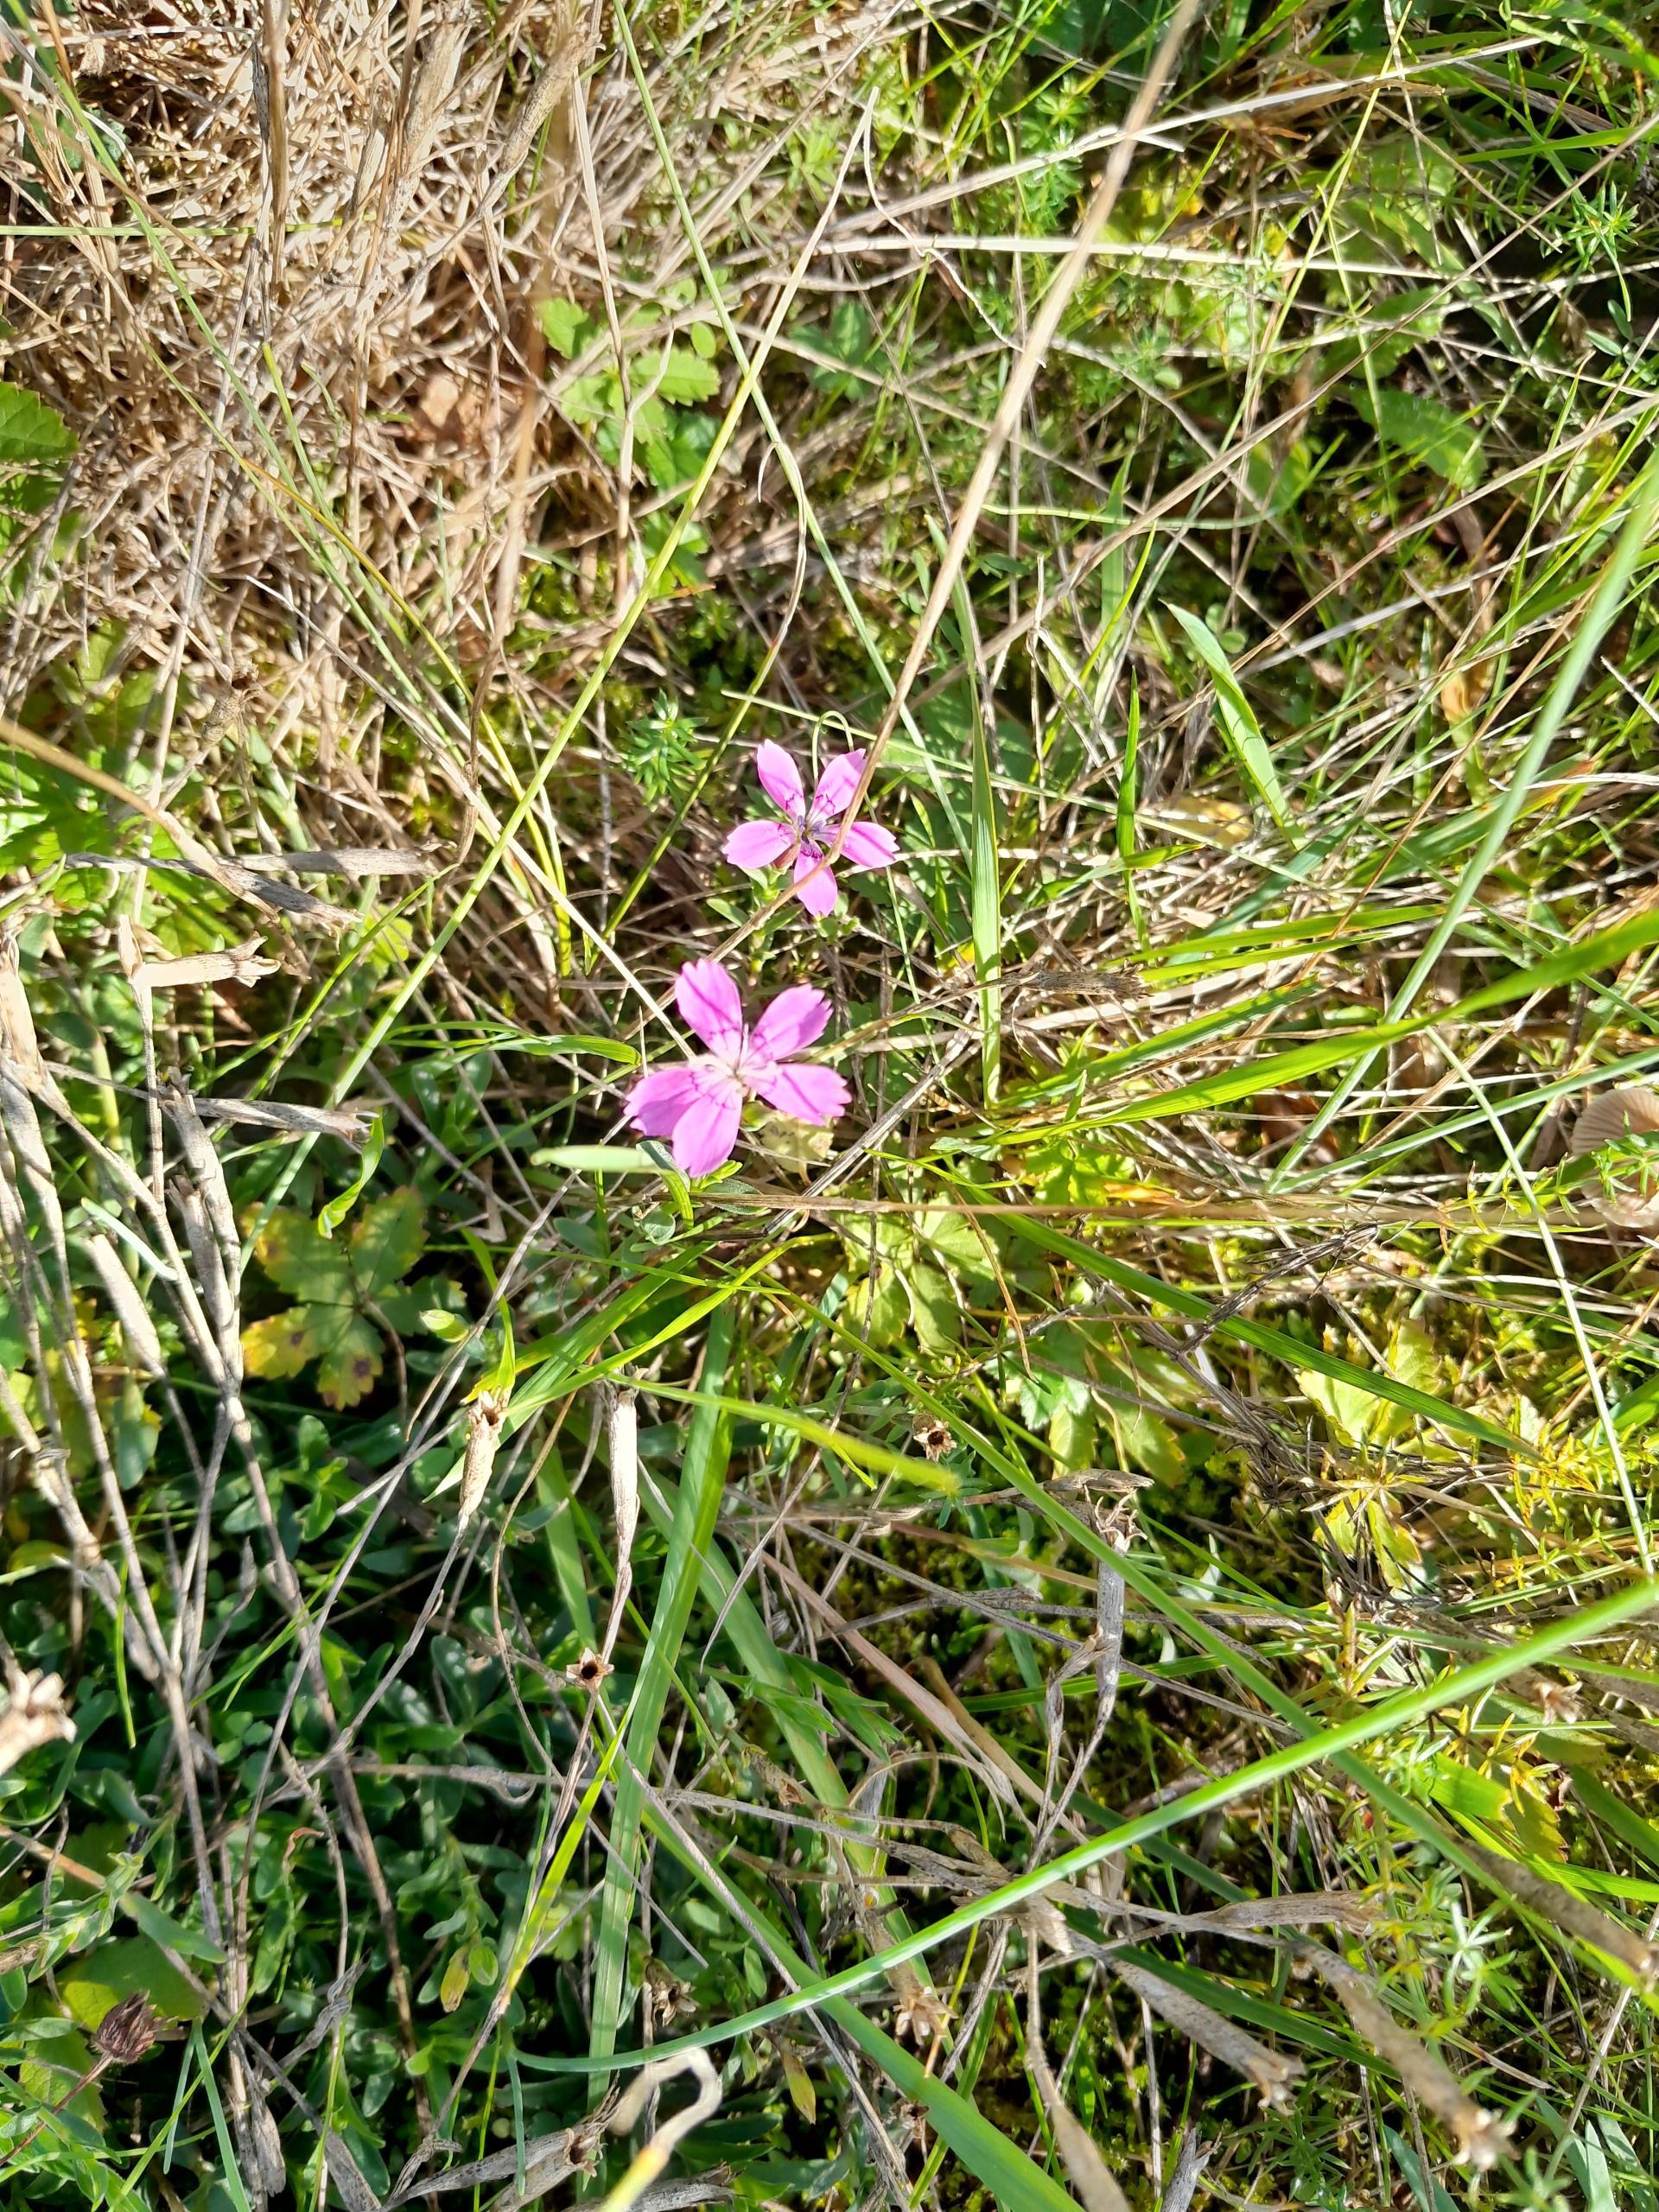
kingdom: Plantae
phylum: Tracheophyta
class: Magnoliopsida
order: Caryophyllales
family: Caryophyllaceae
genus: Dianthus
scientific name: Dianthus deltoides
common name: Bakke-nellike
